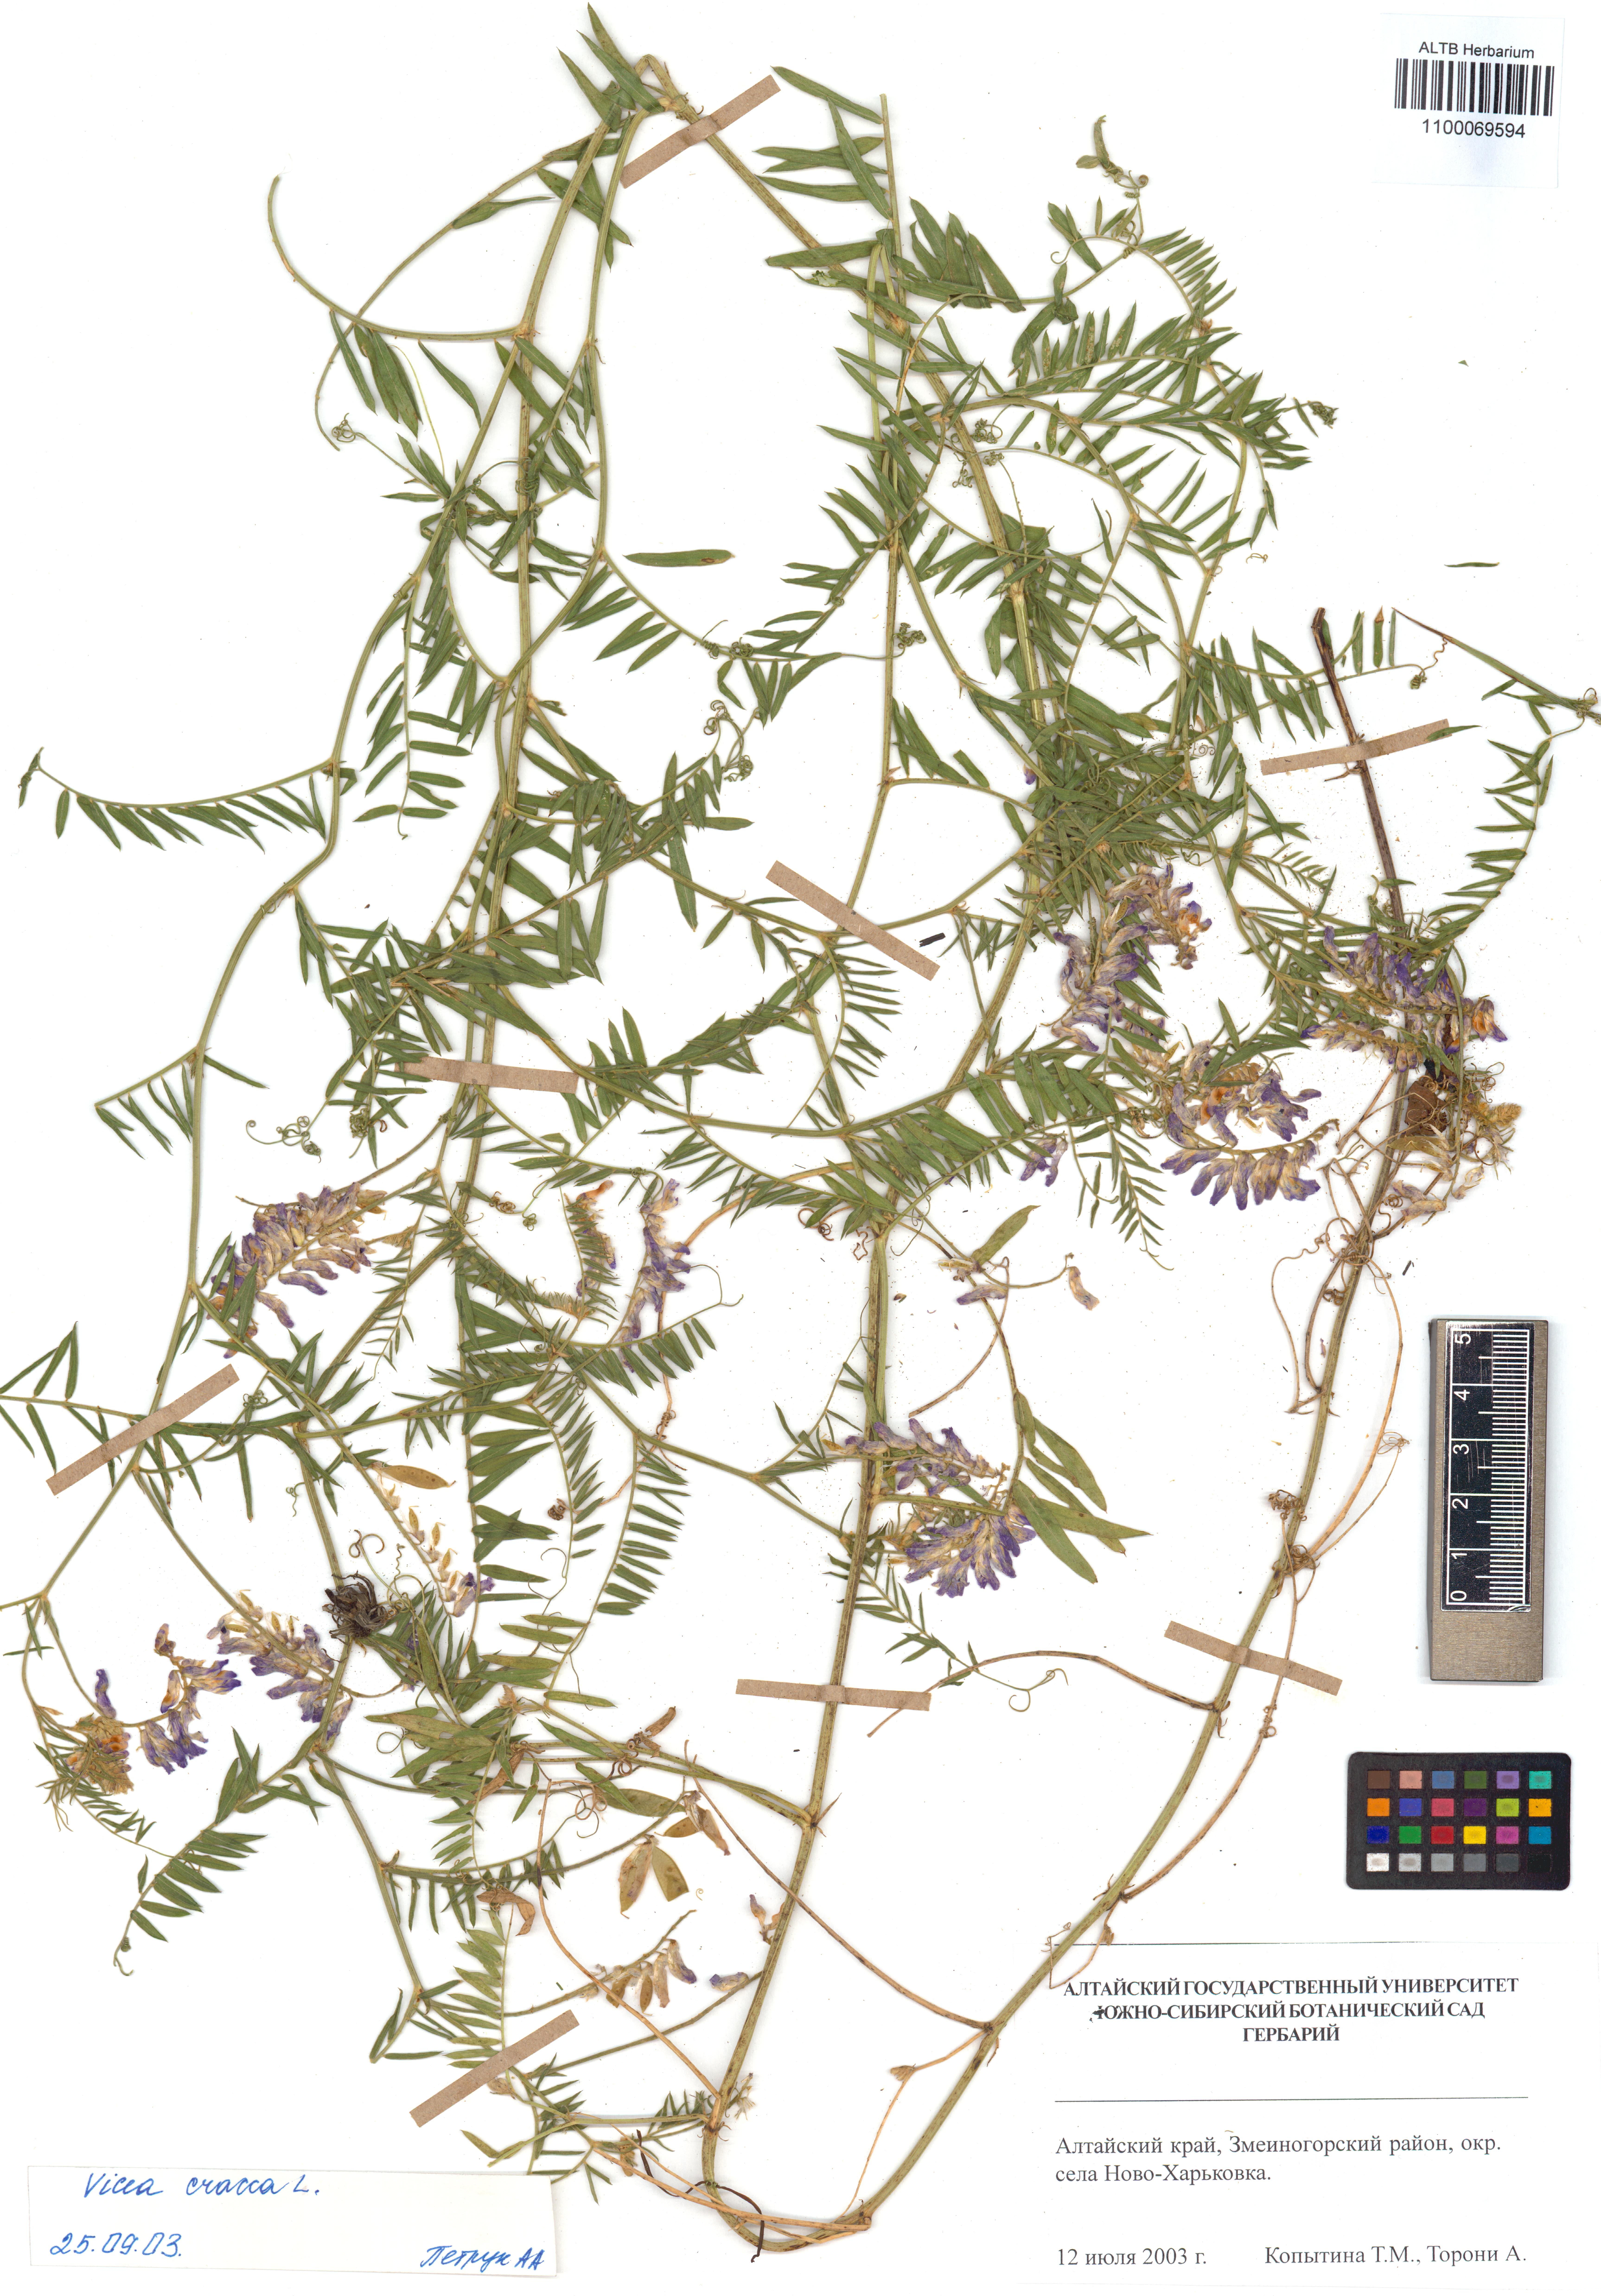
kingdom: Plantae
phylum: Tracheophyta
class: Magnoliopsida
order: Fabales
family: Fabaceae
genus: Vicia
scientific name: Vicia cracca
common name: Bird vetch
